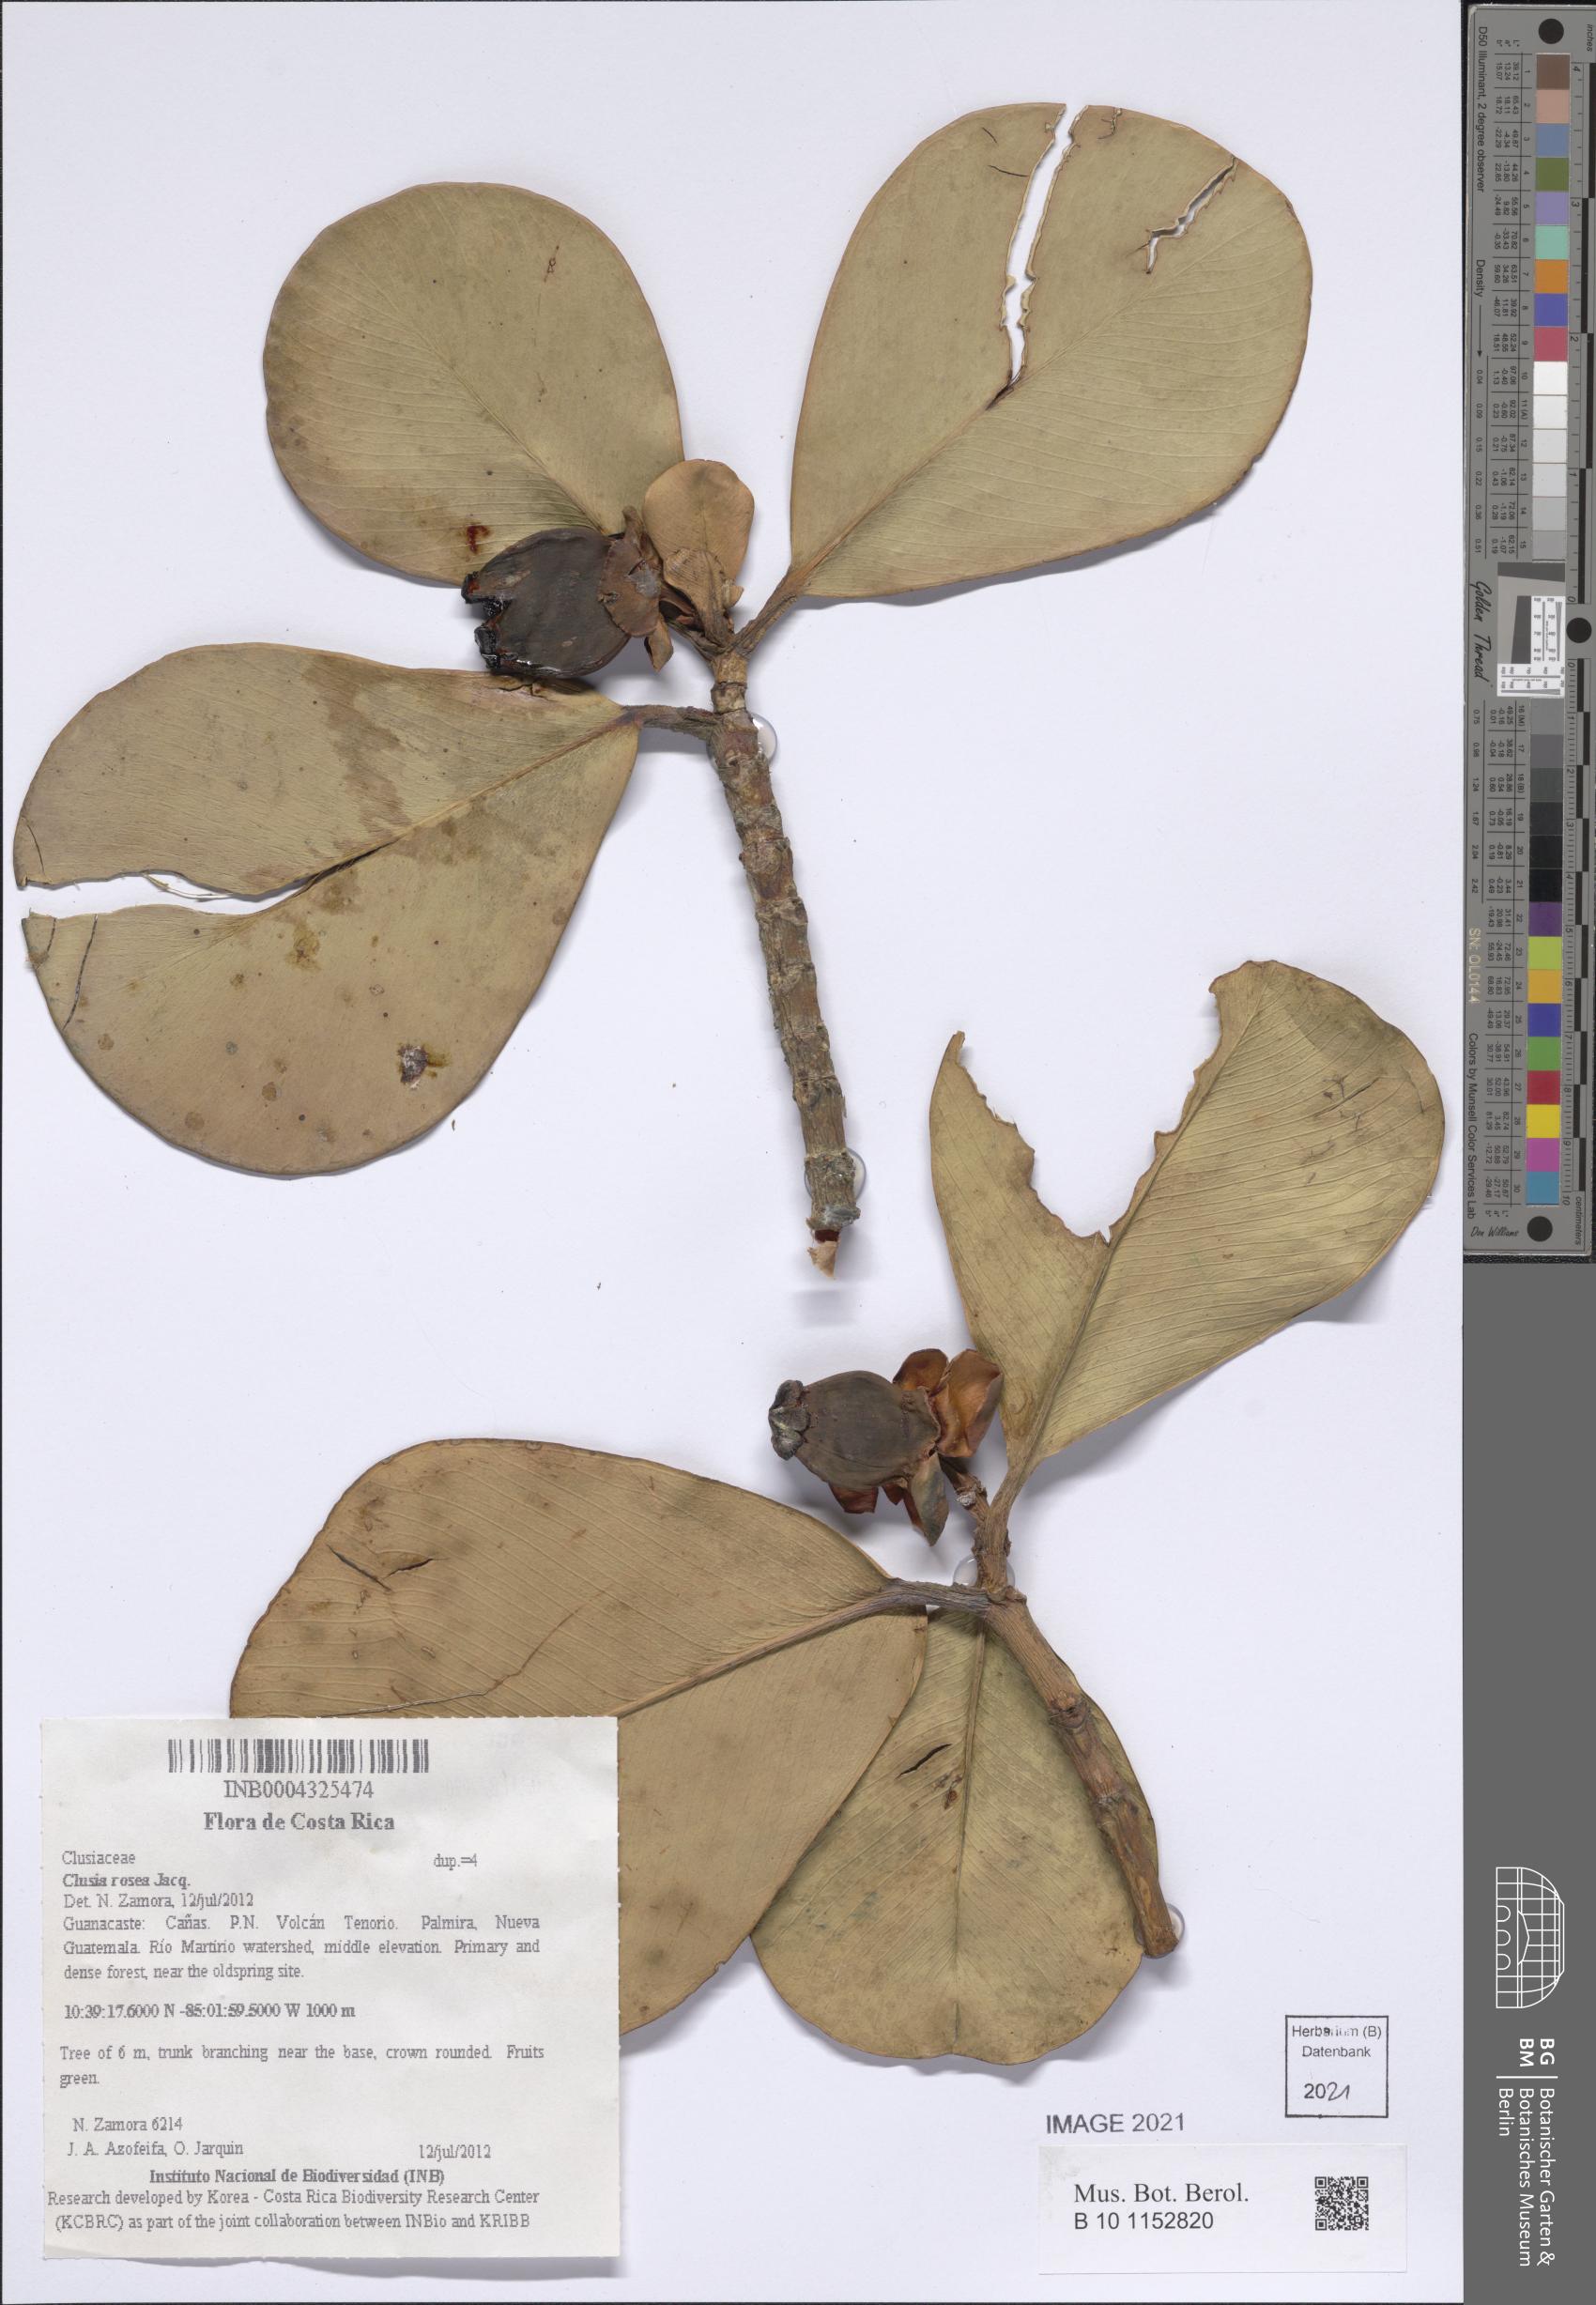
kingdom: Plantae
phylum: Tracheophyta
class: Magnoliopsida
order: Malpighiales
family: Clusiaceae
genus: Clusia
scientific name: Clusia rosea
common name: Scotch attorney
